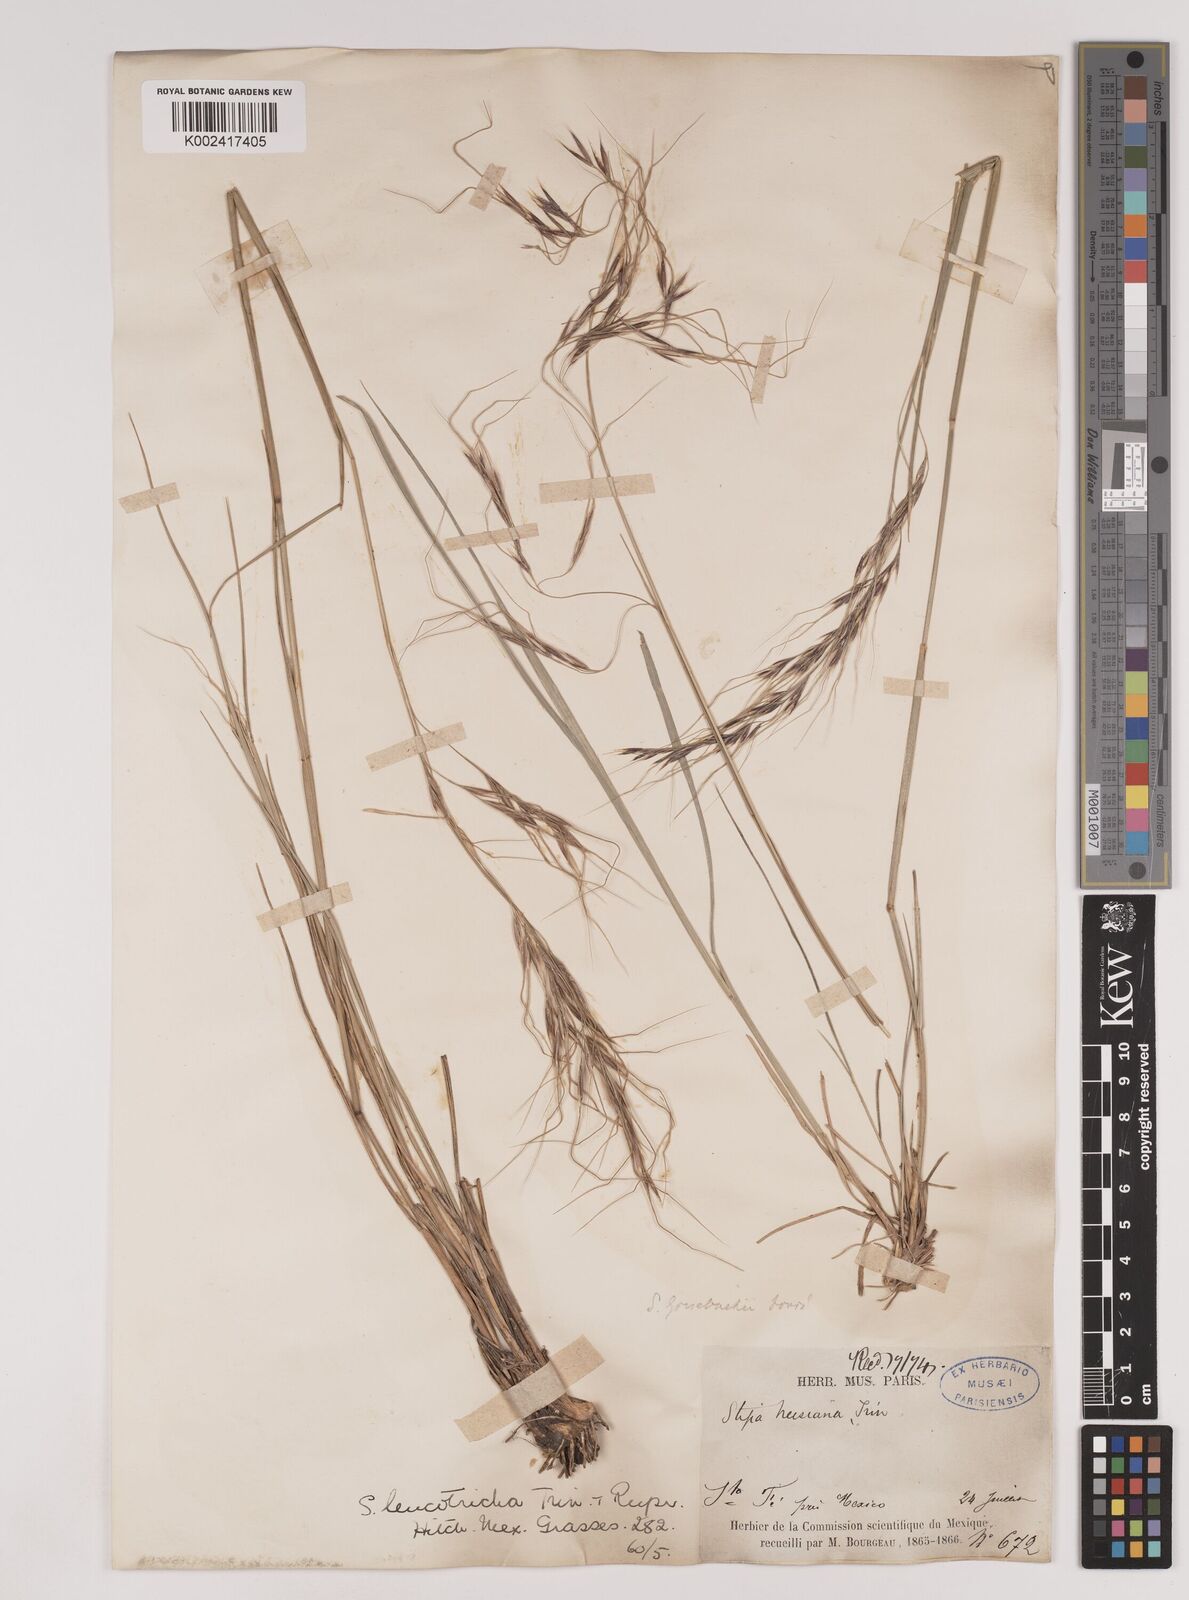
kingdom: Plantae
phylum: Tracheophyta
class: Liliopsida
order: Poales
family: Poaceae
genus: Nassella
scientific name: Nassella leucotricha
